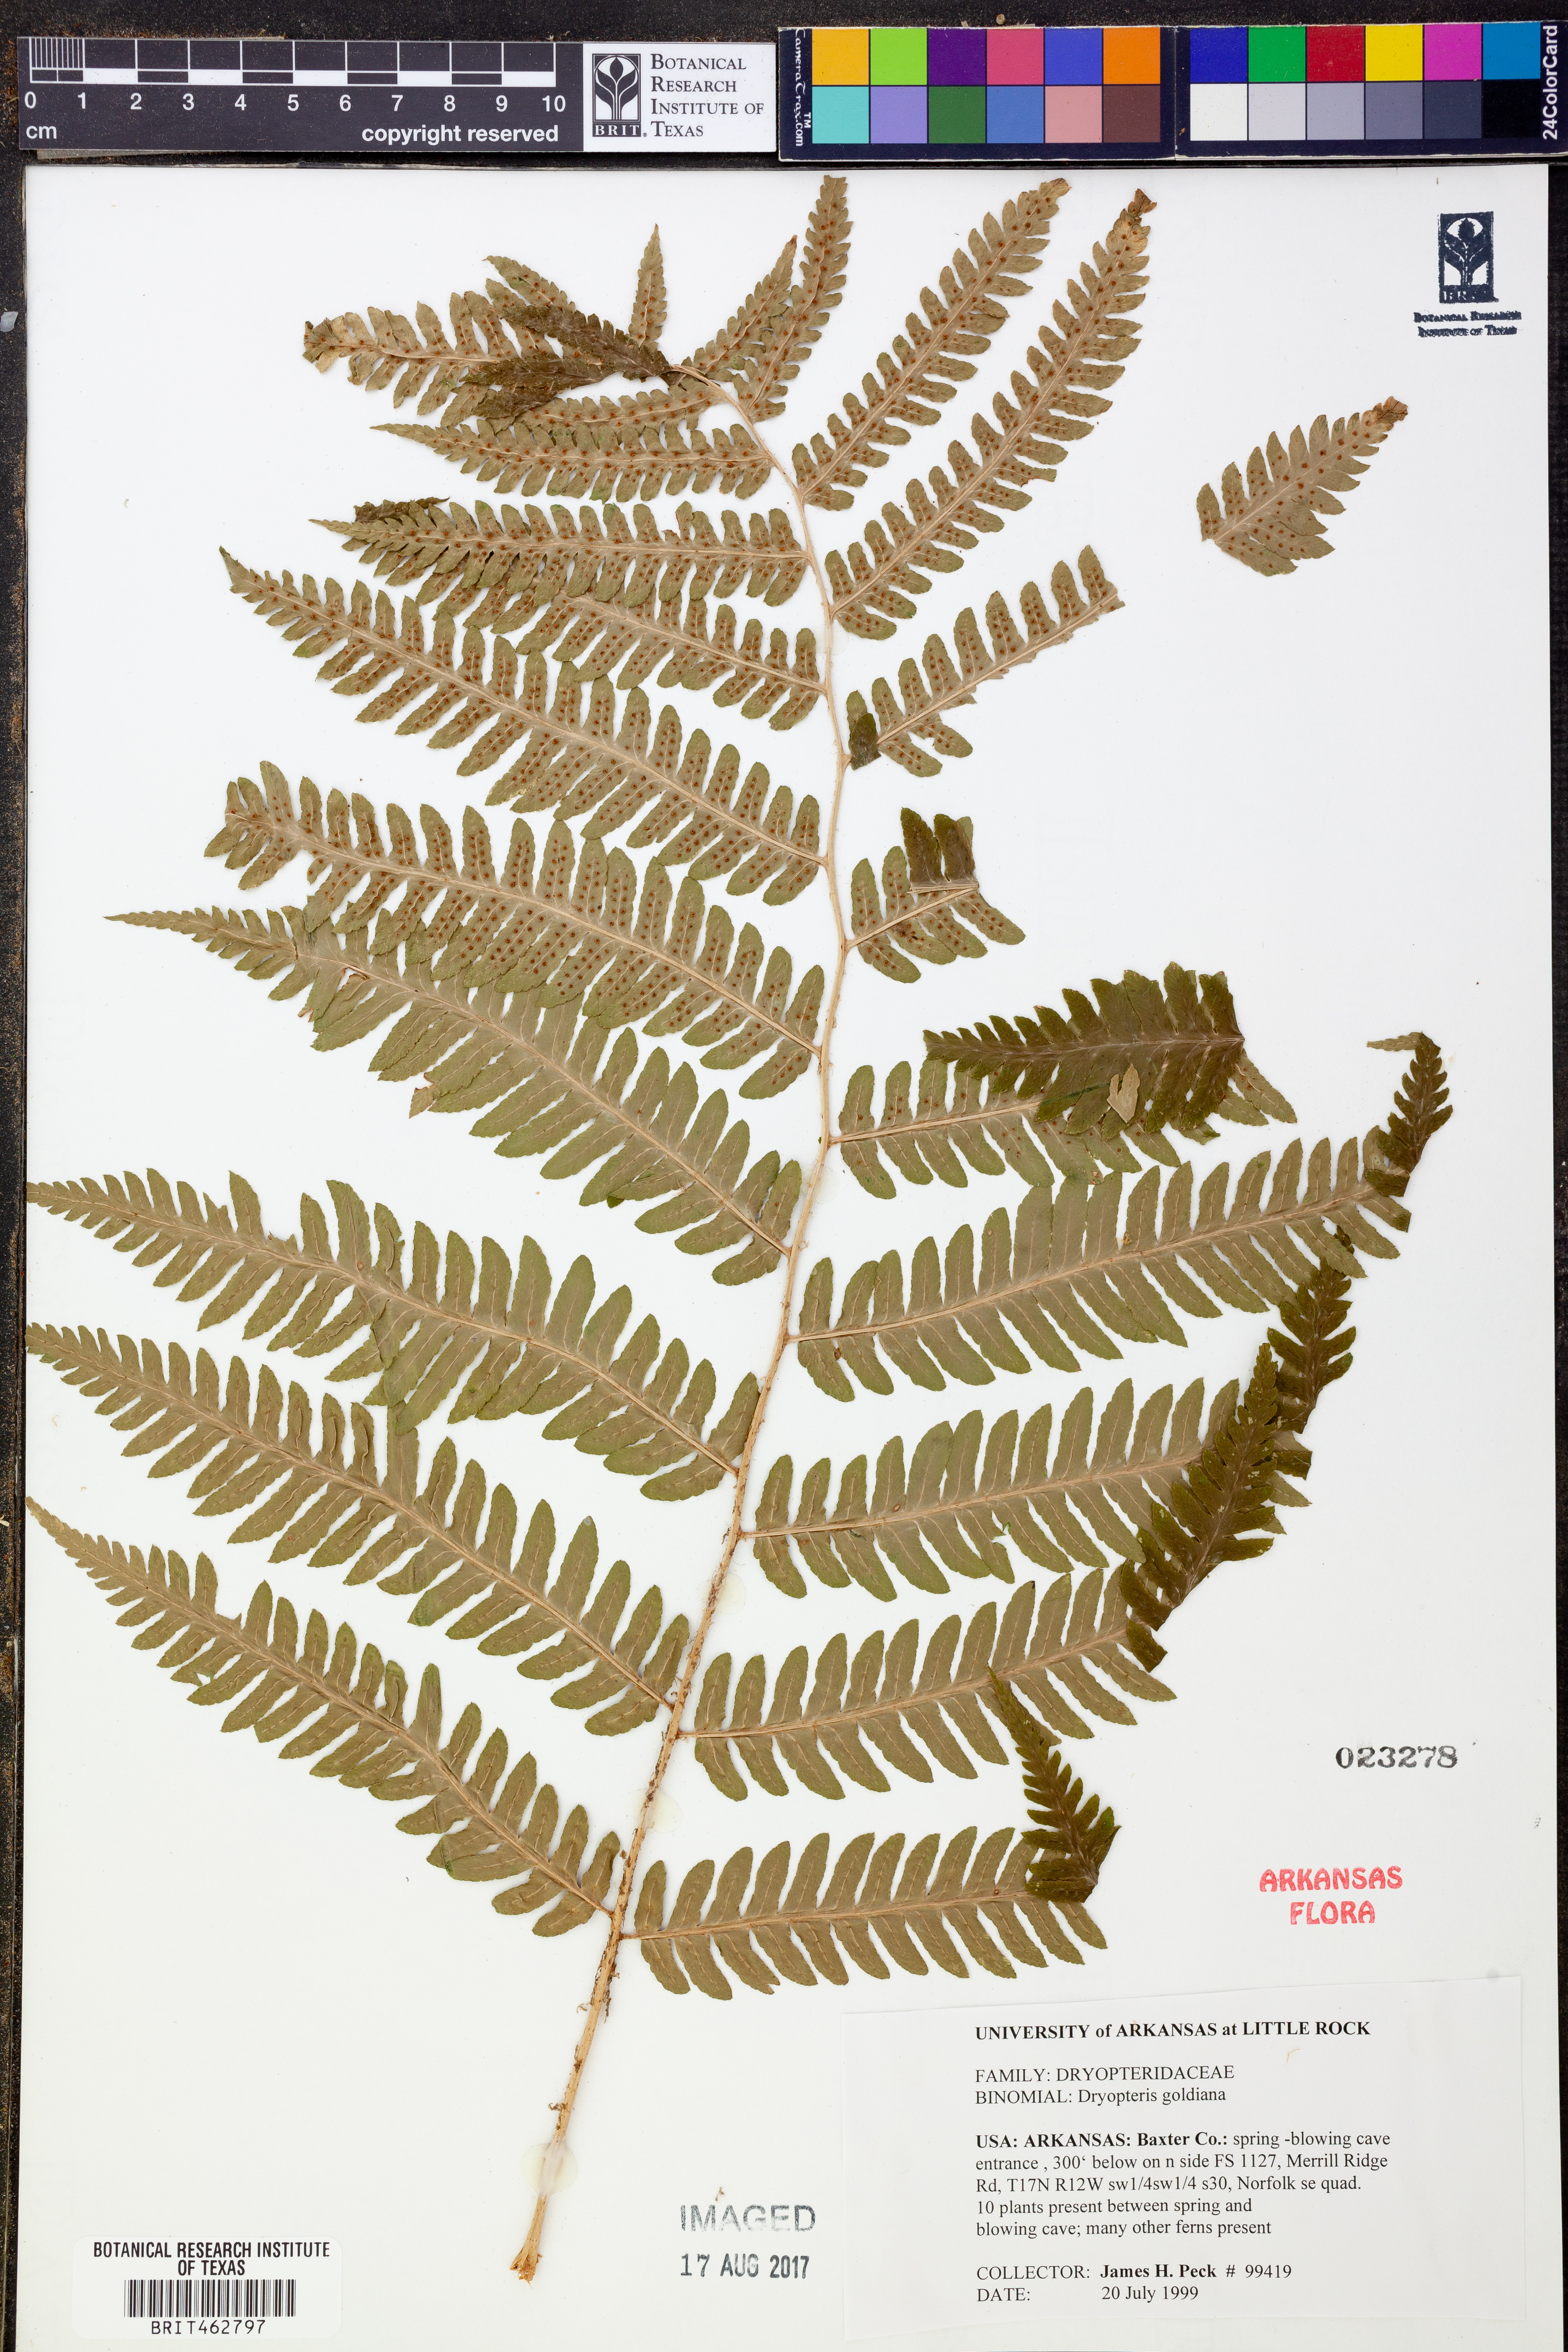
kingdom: Plantae
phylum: Tracheophyta
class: Polypodiopsida
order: Polypodiales
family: Dryopteridaceae
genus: Dryopteris
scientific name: Dryopteris goeldiana
